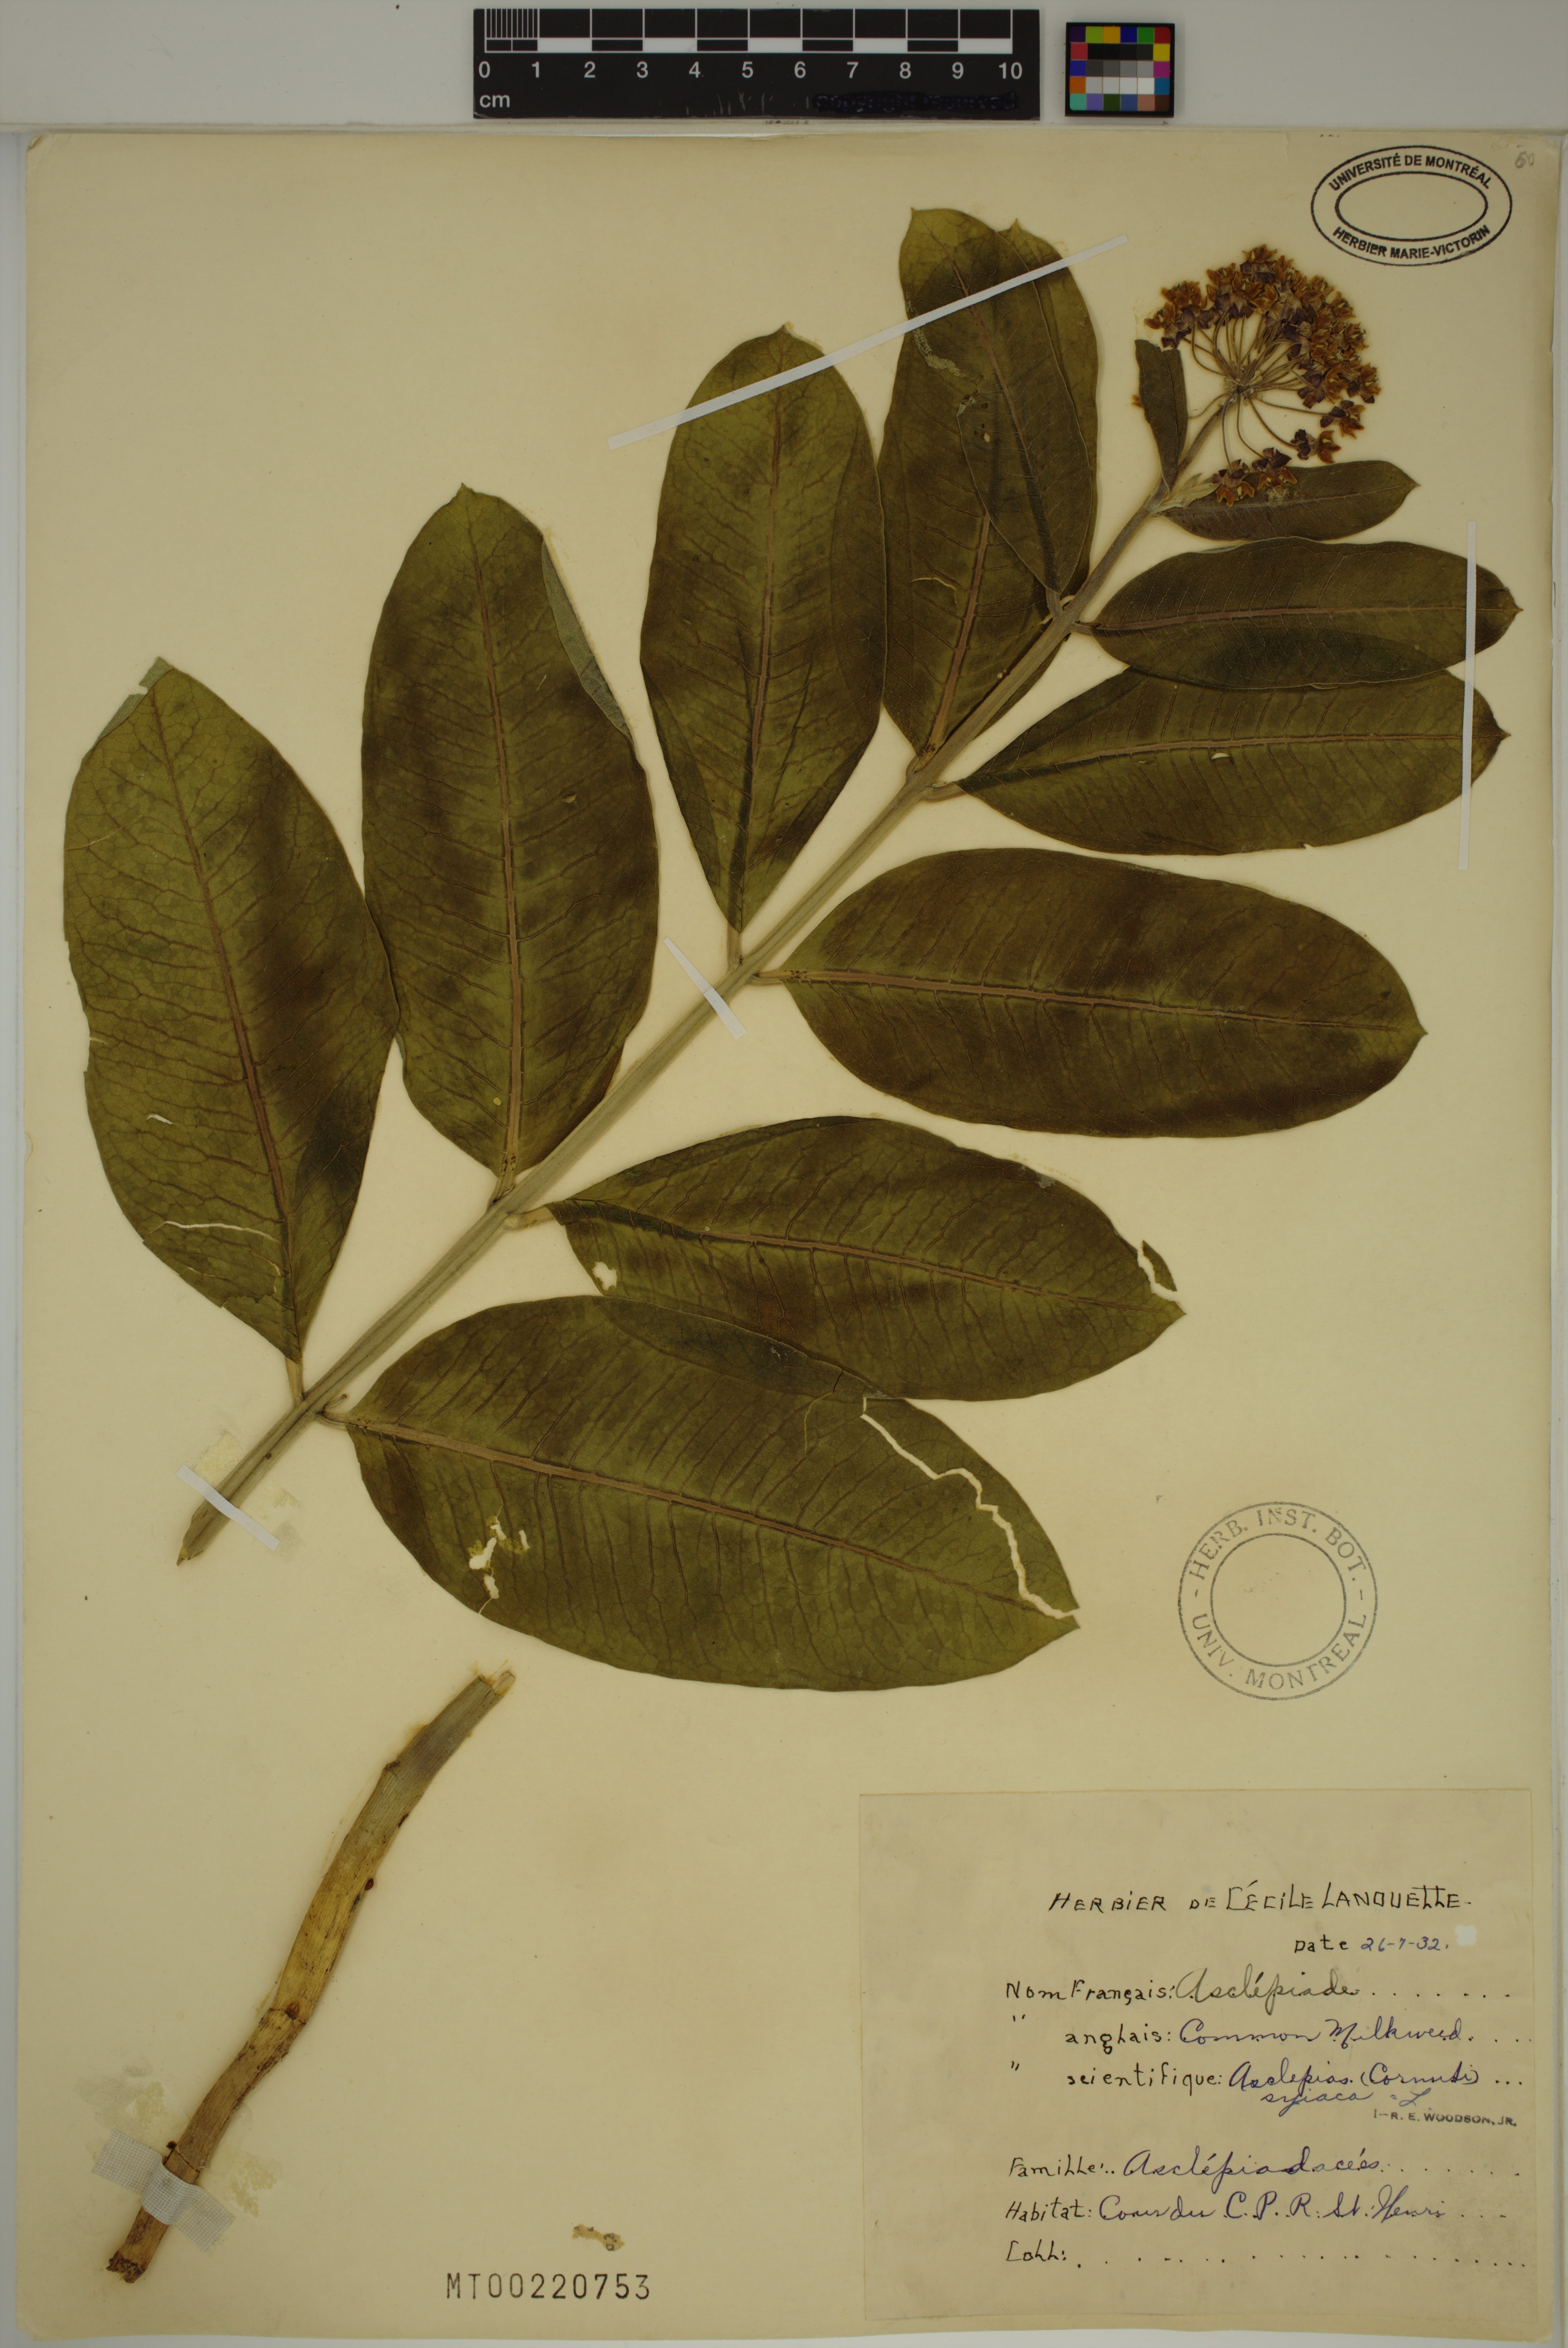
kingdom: Plantae
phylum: Tracheophyta
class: Magnoliopsida
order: Gentianales
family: Apocynaceae
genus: Asclepias
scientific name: Asclepias syriaca
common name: Common milkweed
